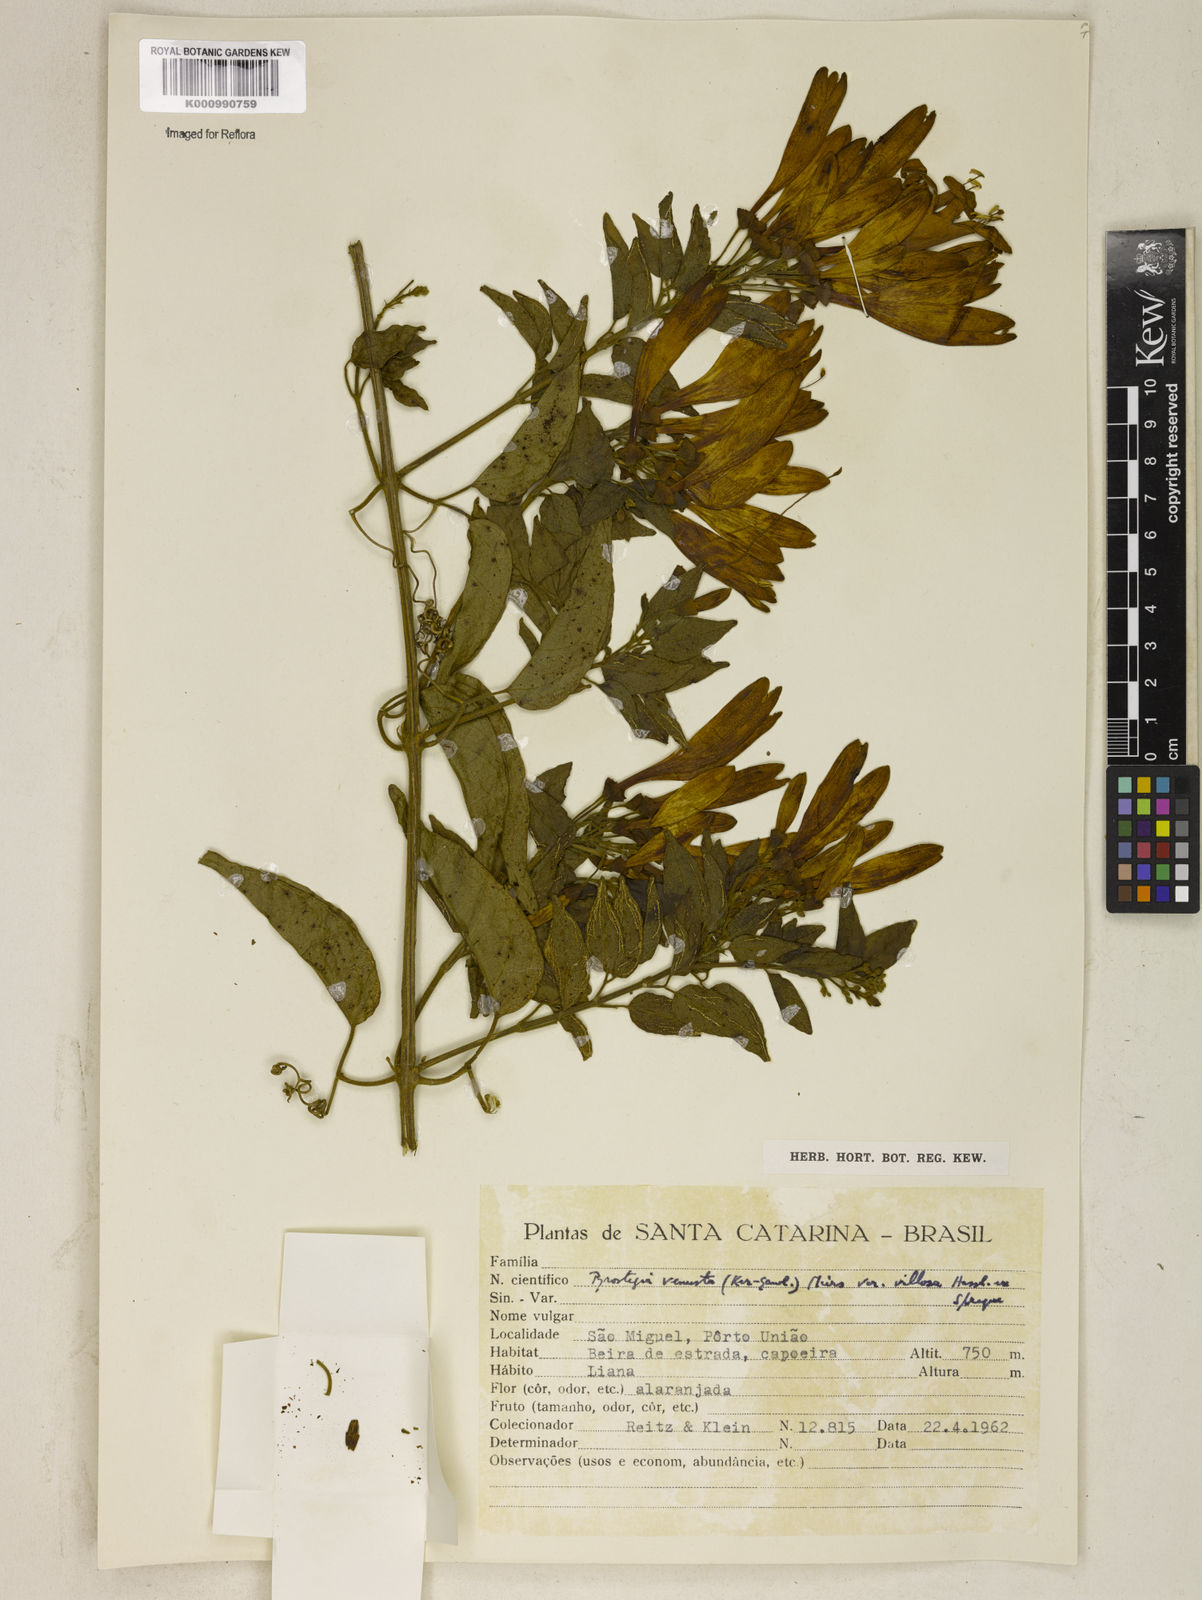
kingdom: Plantae
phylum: Tracheophyta
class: Magnoliopsida
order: Lamiales
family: Bignoniaceae
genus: Pyrostegia
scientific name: Pyrostegia venusta
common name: Flamevine
